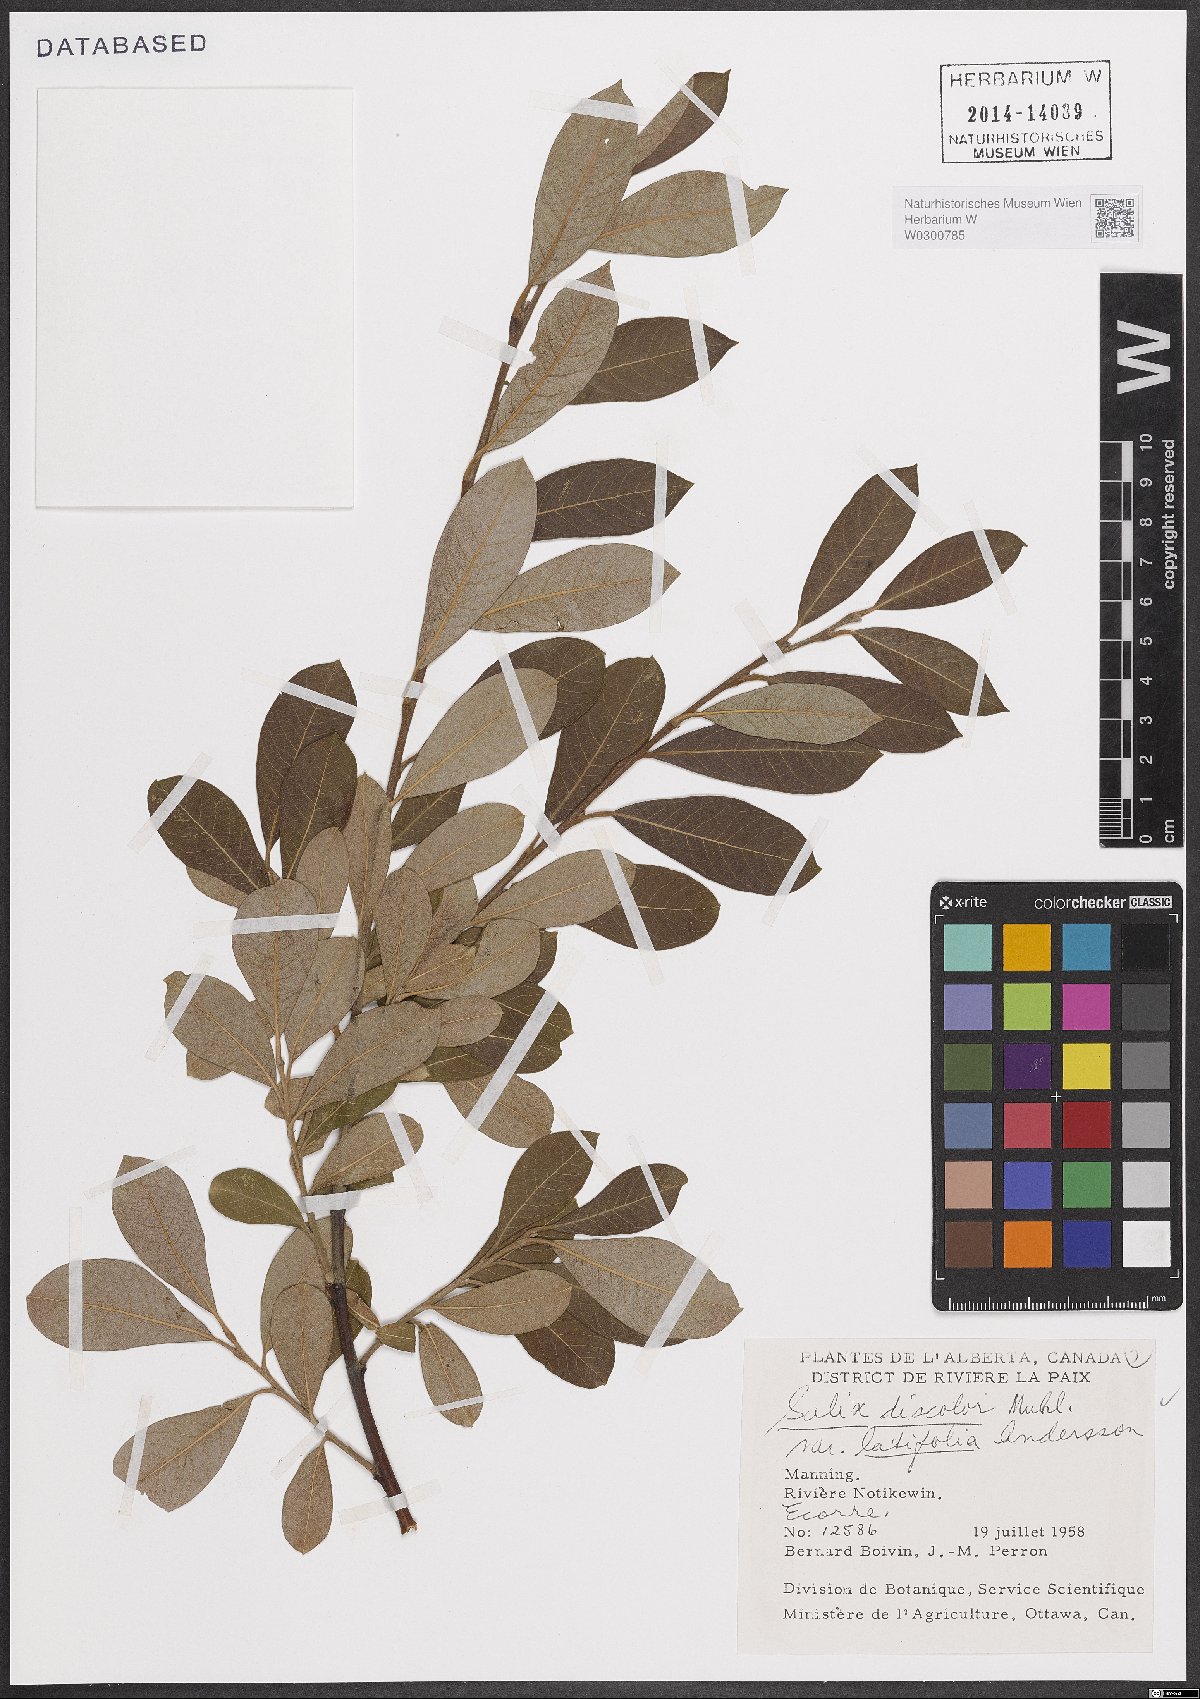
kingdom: Plantae
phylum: Tracheophyta
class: Magnoliopsida
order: Malpighiales
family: Salicaceae
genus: Salix
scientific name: Salix eriocephala
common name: Heart-leaved willow
